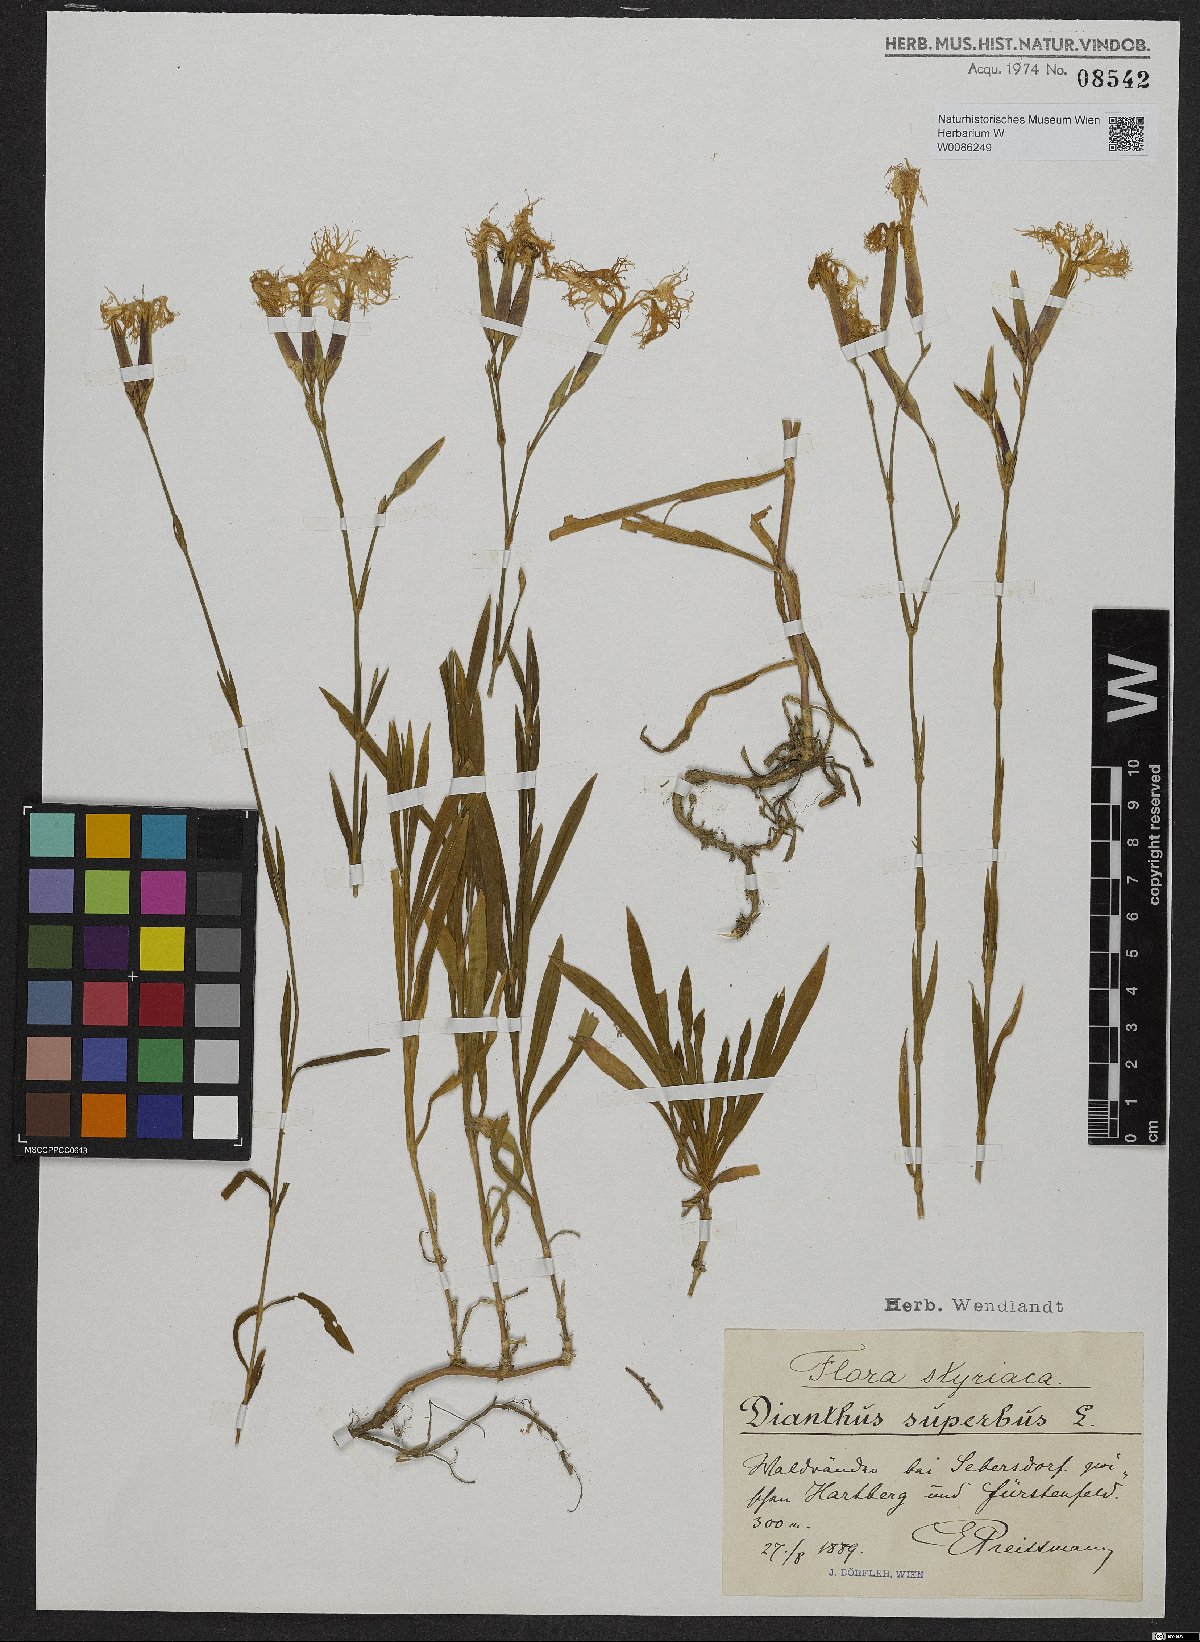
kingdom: Plantae
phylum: Tracheophyta
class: Magnoliopsida
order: Caryophyllales
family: Caryophyllaceae
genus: Dianthus
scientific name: Dianthus superbus
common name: Fringed pink
